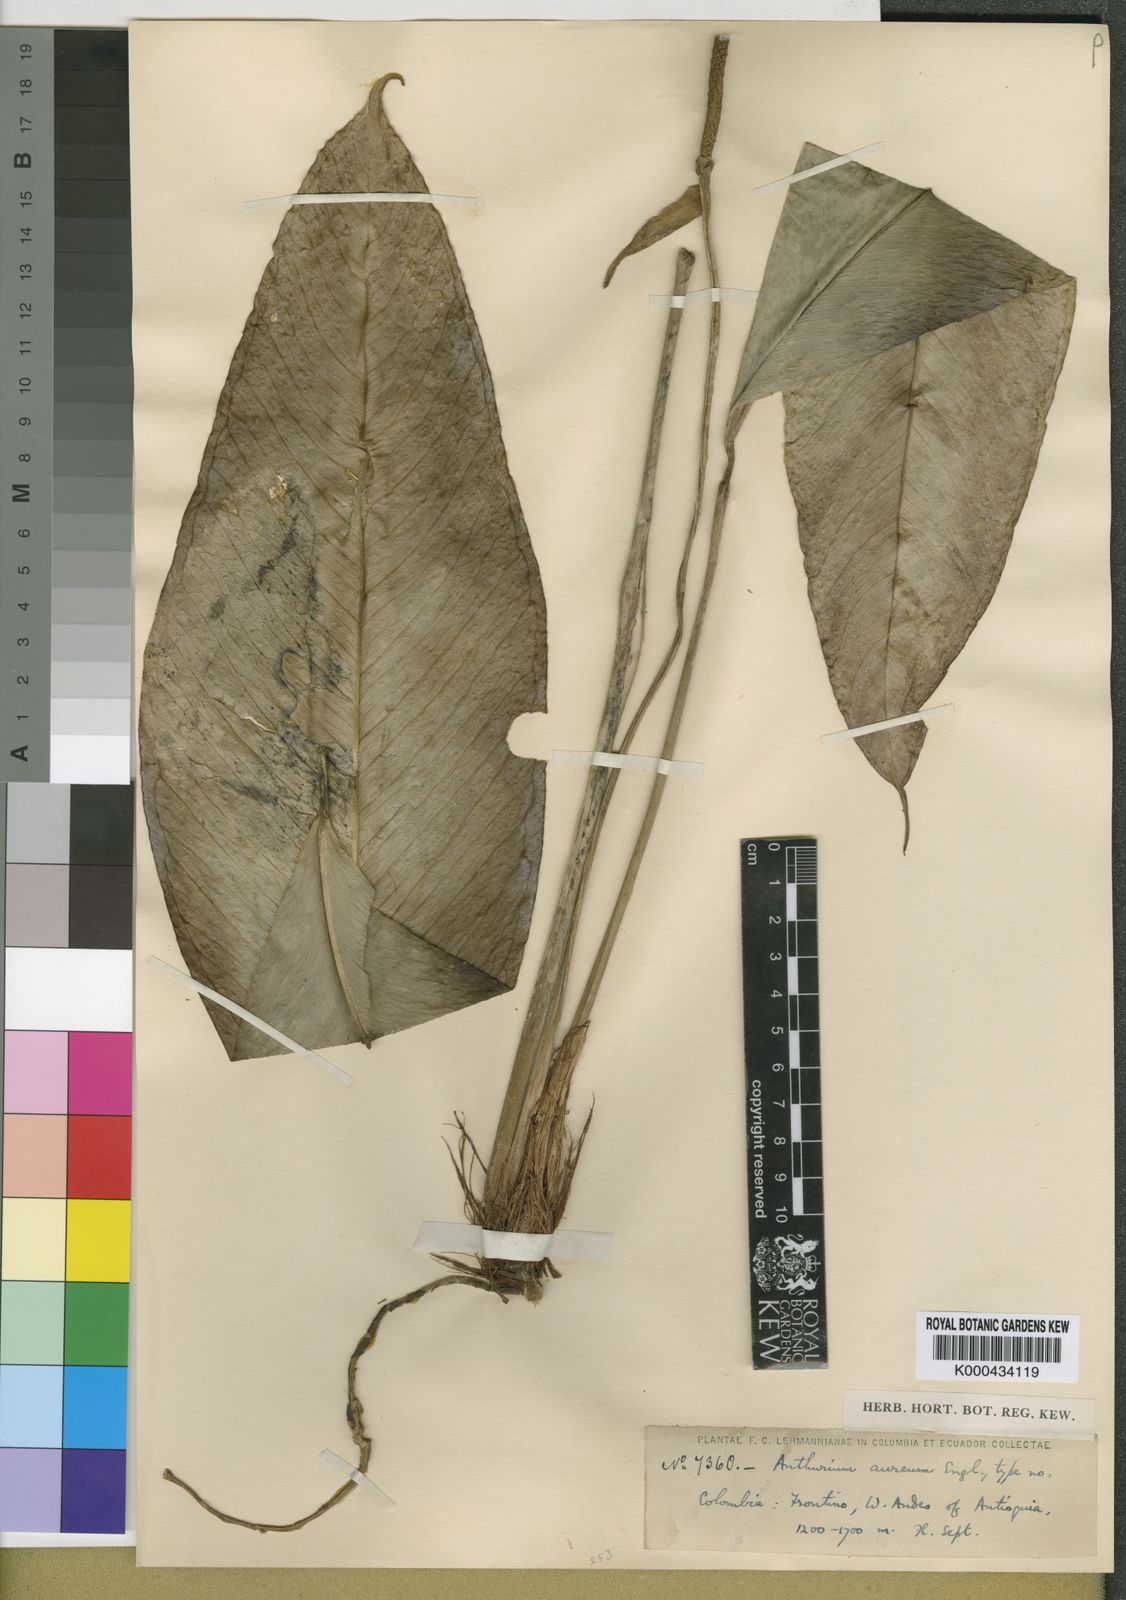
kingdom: Plantae
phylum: Tracheophyta
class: Liliopsida
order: Alismatales
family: Araceae
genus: Anthurium
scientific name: Anthurium aureum
